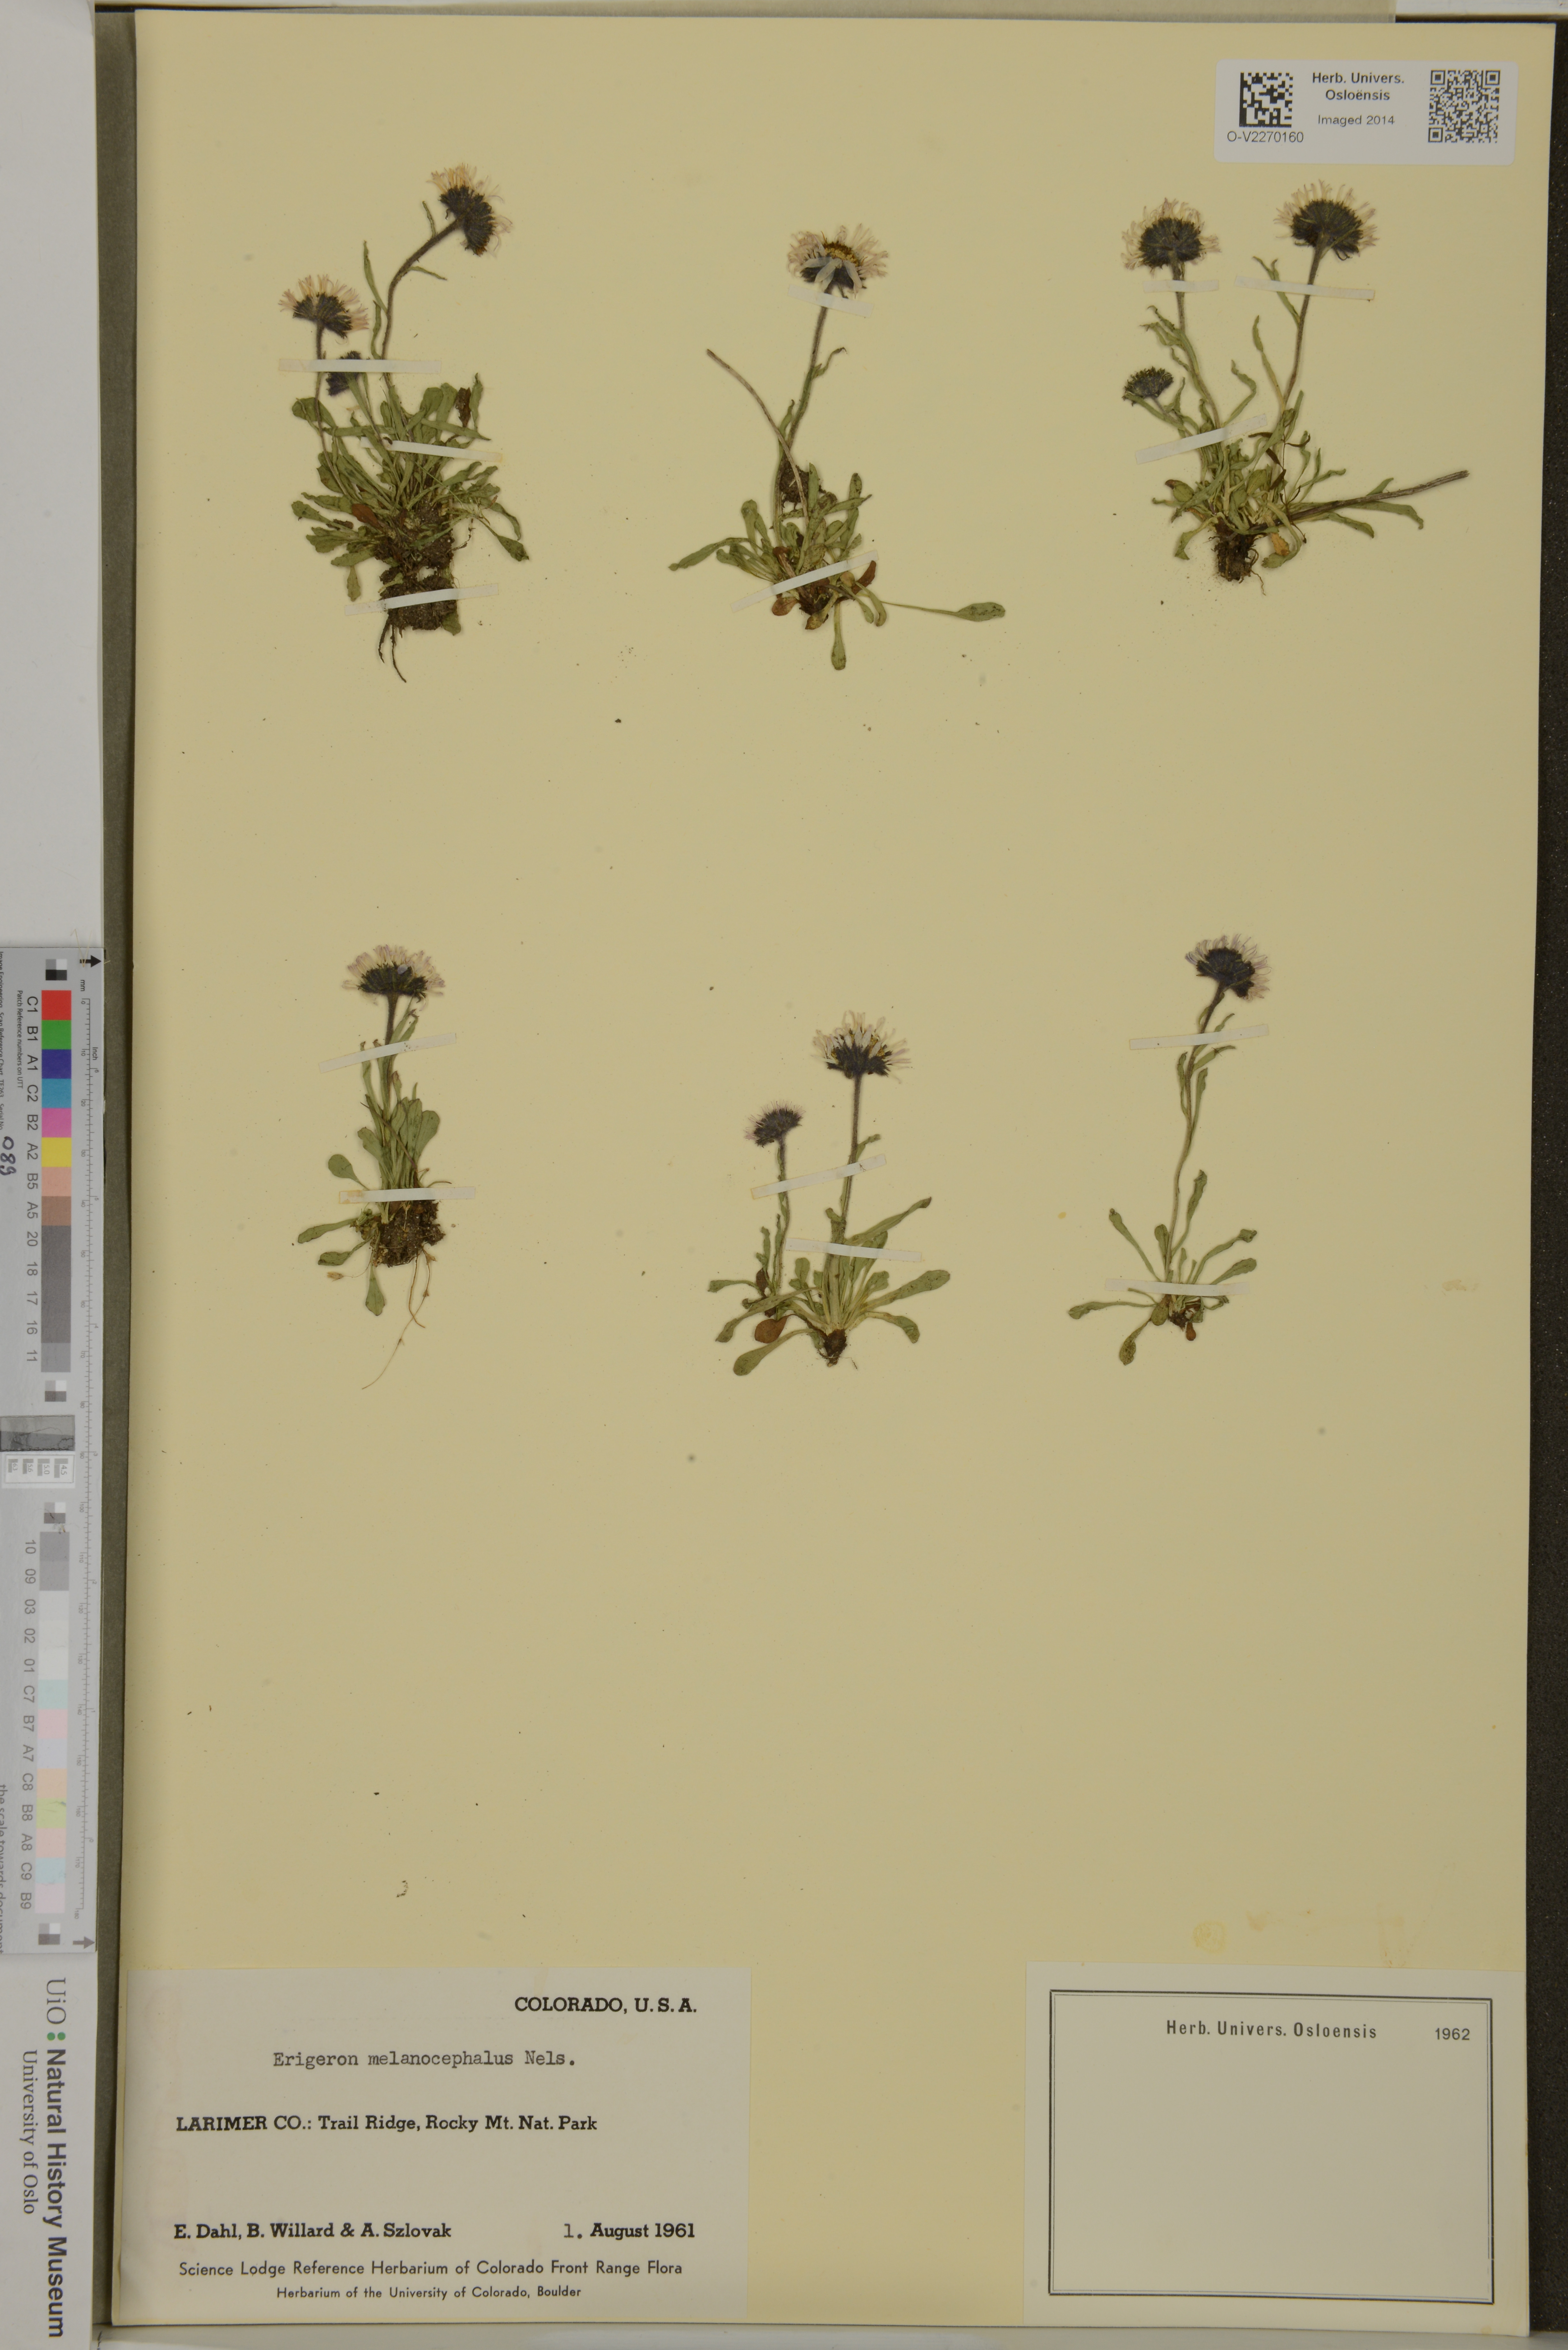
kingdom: Plantae
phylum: Tracheophyta
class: Magnoliopsida
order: Asterales
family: Asteraceae
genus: Erigeron
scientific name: Erigeron melanocephalus
